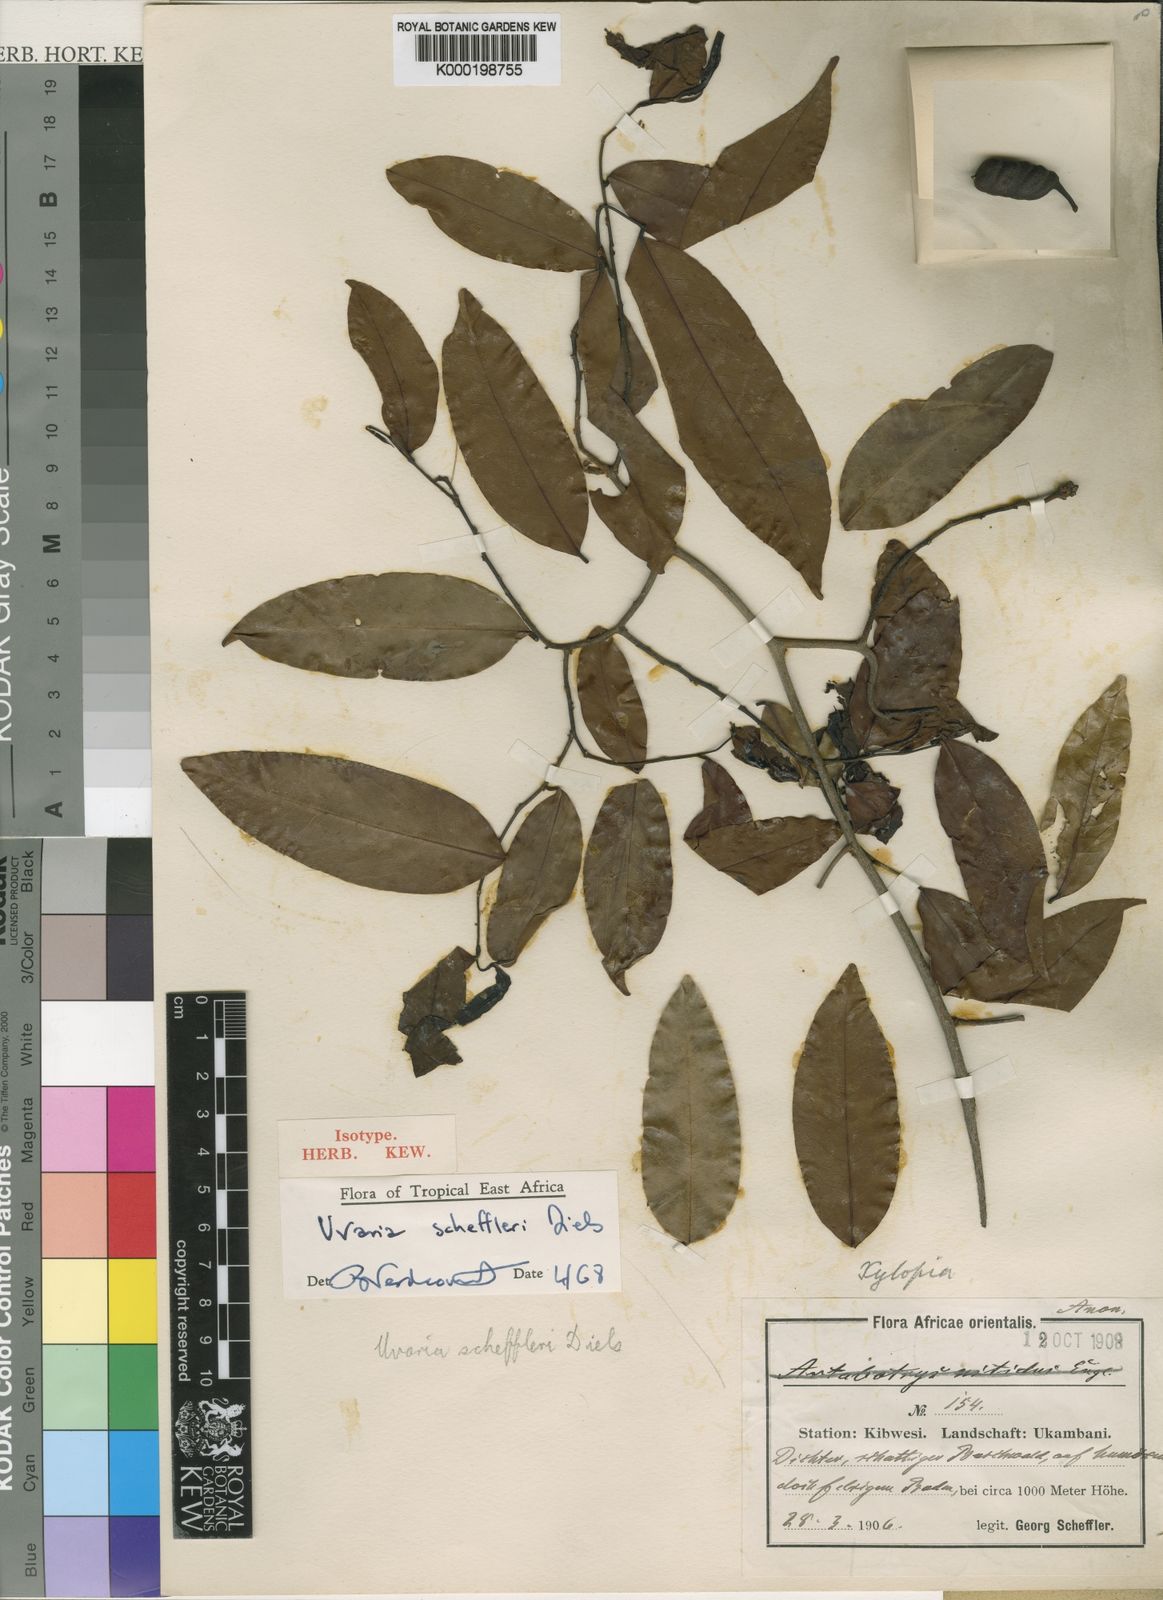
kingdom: Plantae
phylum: Tracheophyta
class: Magnoliopsida
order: Magnoliales
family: Annonaceae
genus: Uvaria
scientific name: Uvaria scheffleri
